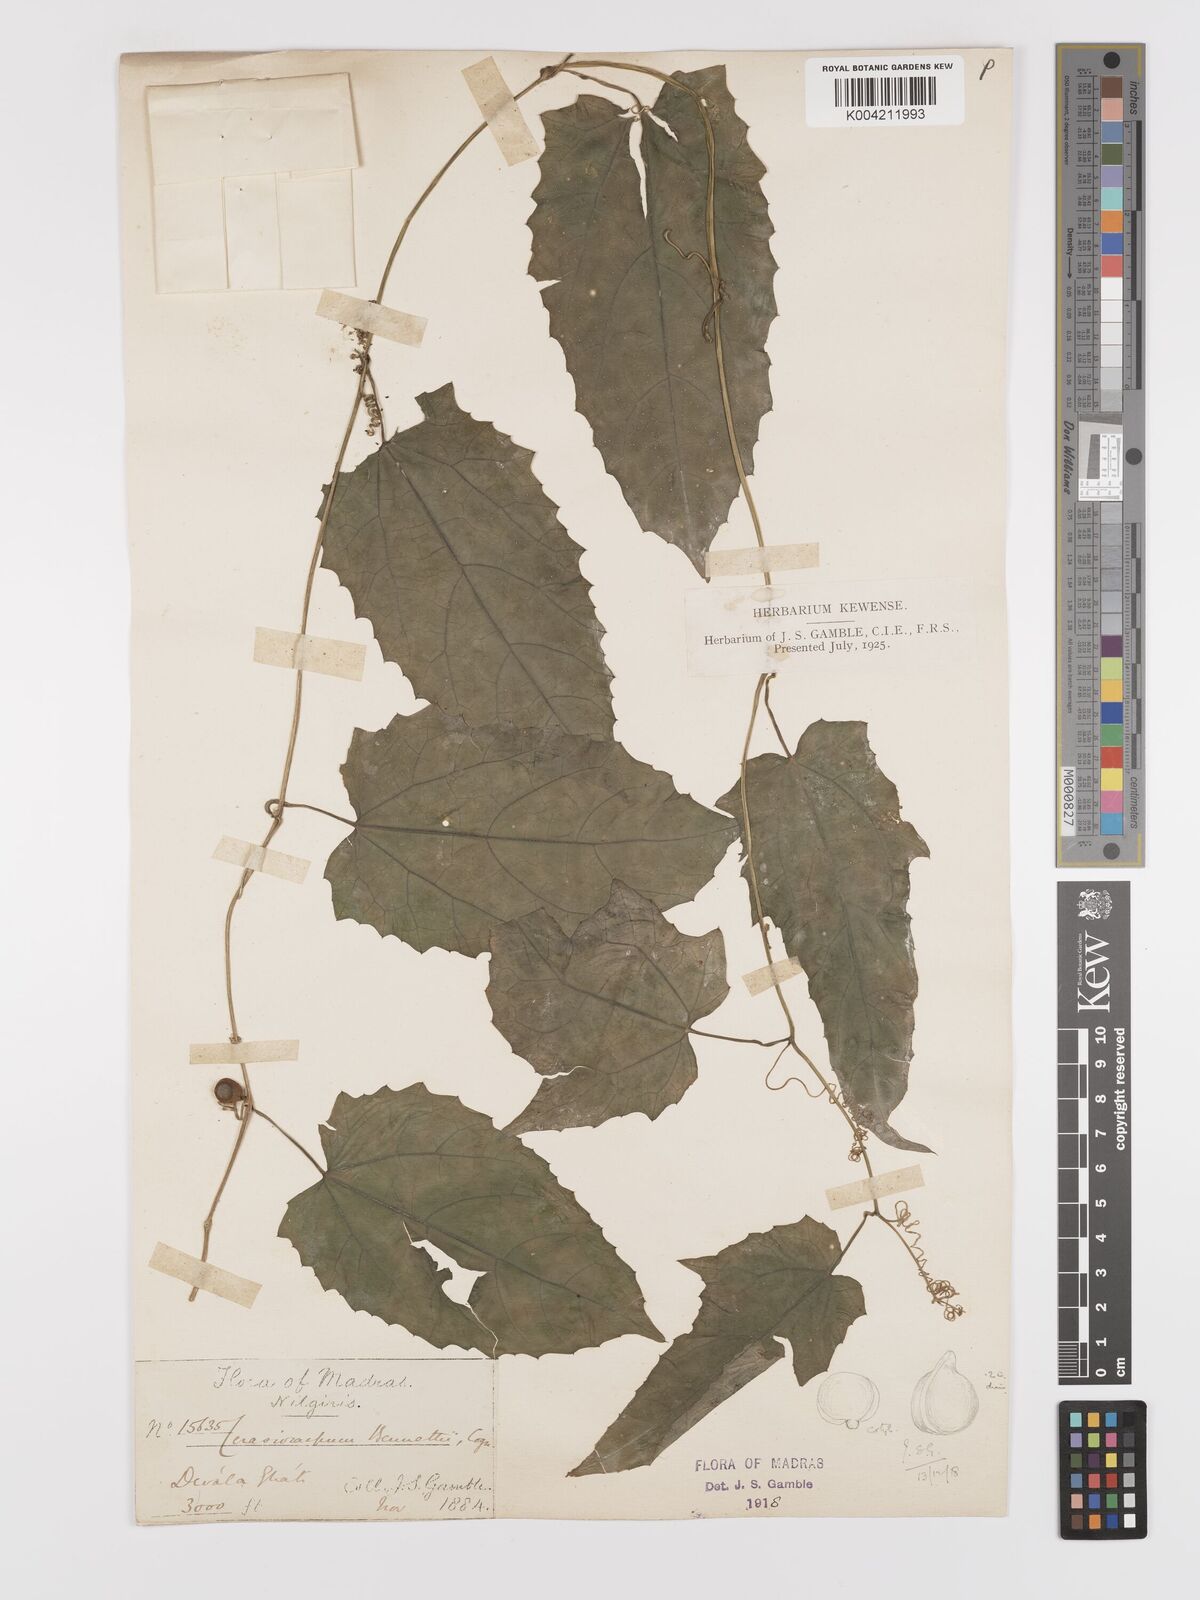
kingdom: Plantae
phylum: Tracheophyta
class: Magnoliopsida
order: Cucurbitales
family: Cucurbitaceae
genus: Kedrostis
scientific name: Kedrostis courtallensis
